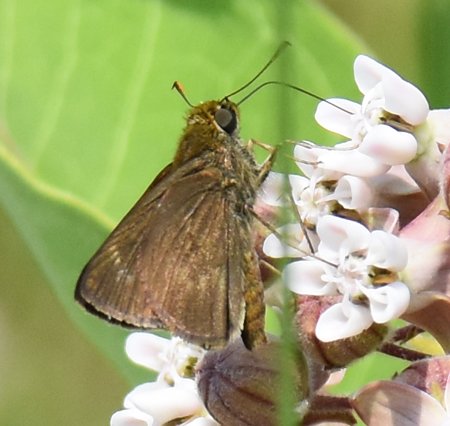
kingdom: Animalia
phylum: Arthropoda
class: Insecta
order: Lepidoptera
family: Hesperiidae
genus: Polites
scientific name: Polites egeremet
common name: Northern Broken-Dash
